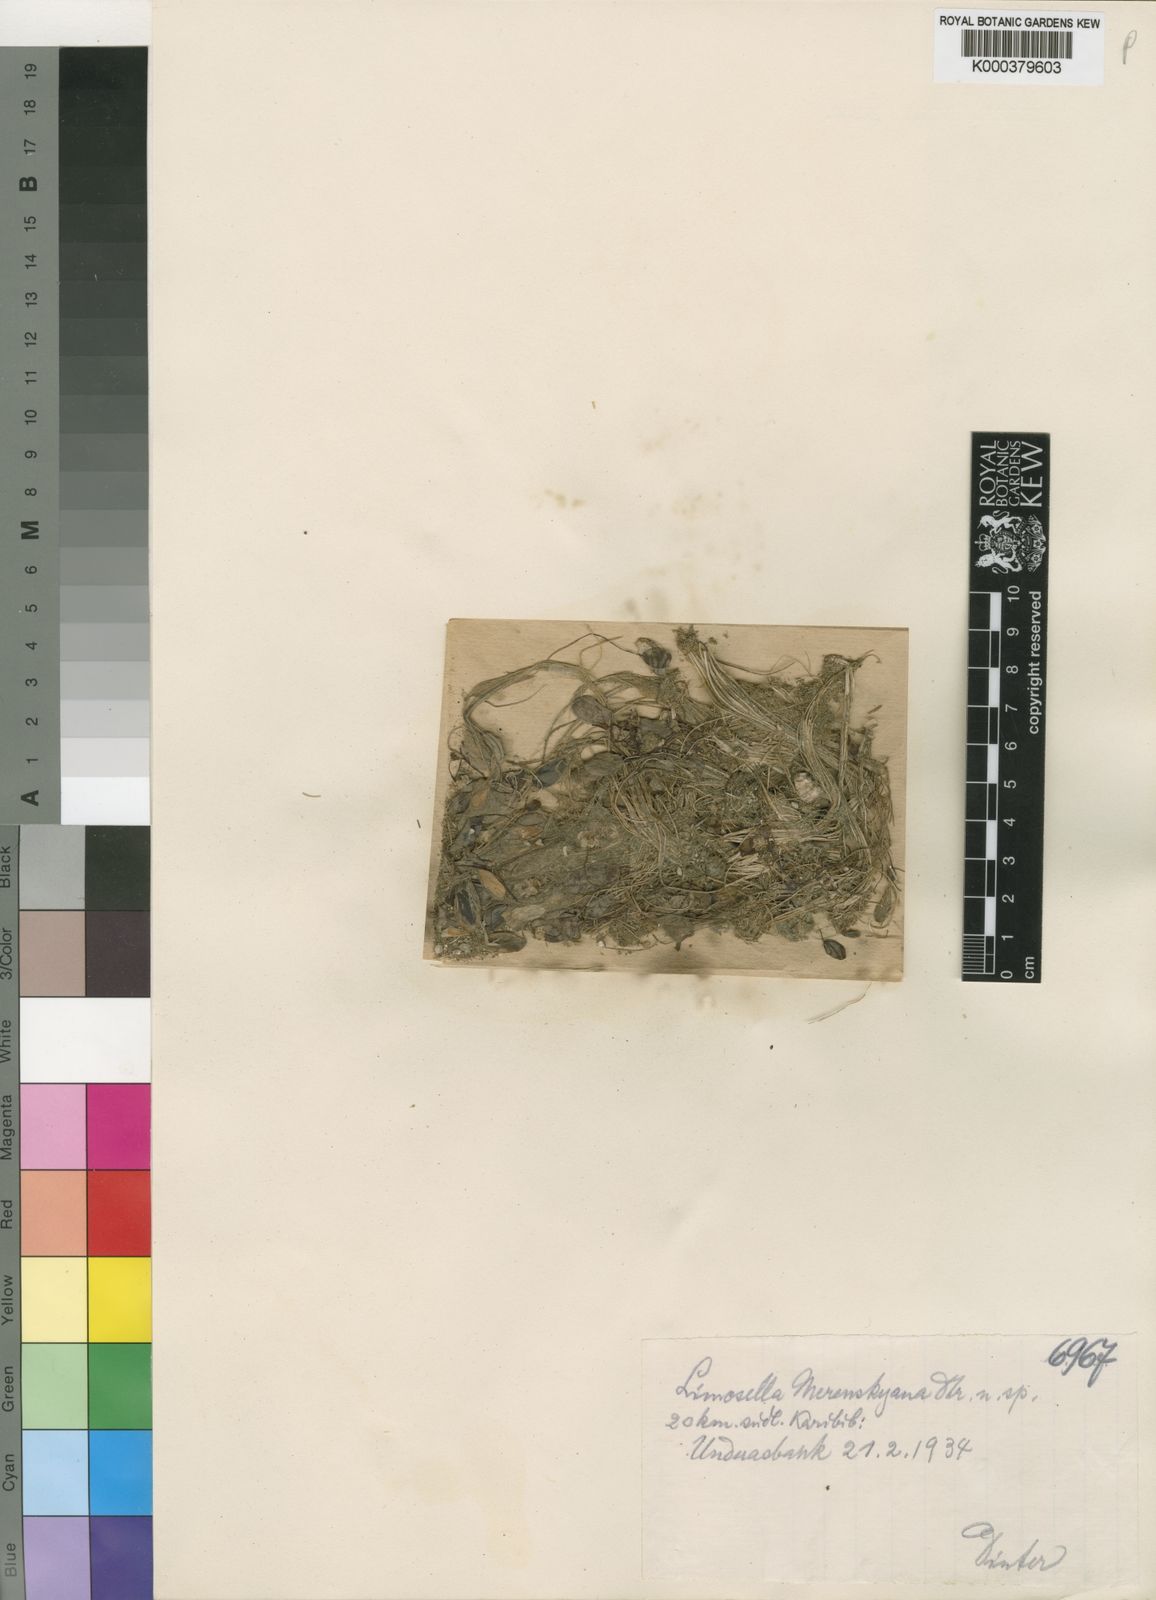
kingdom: Plantae
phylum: Tracheophyta
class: Magnoliopsida
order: Lamiales
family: Scrophulariaceae
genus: Limosella
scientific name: Limosella
